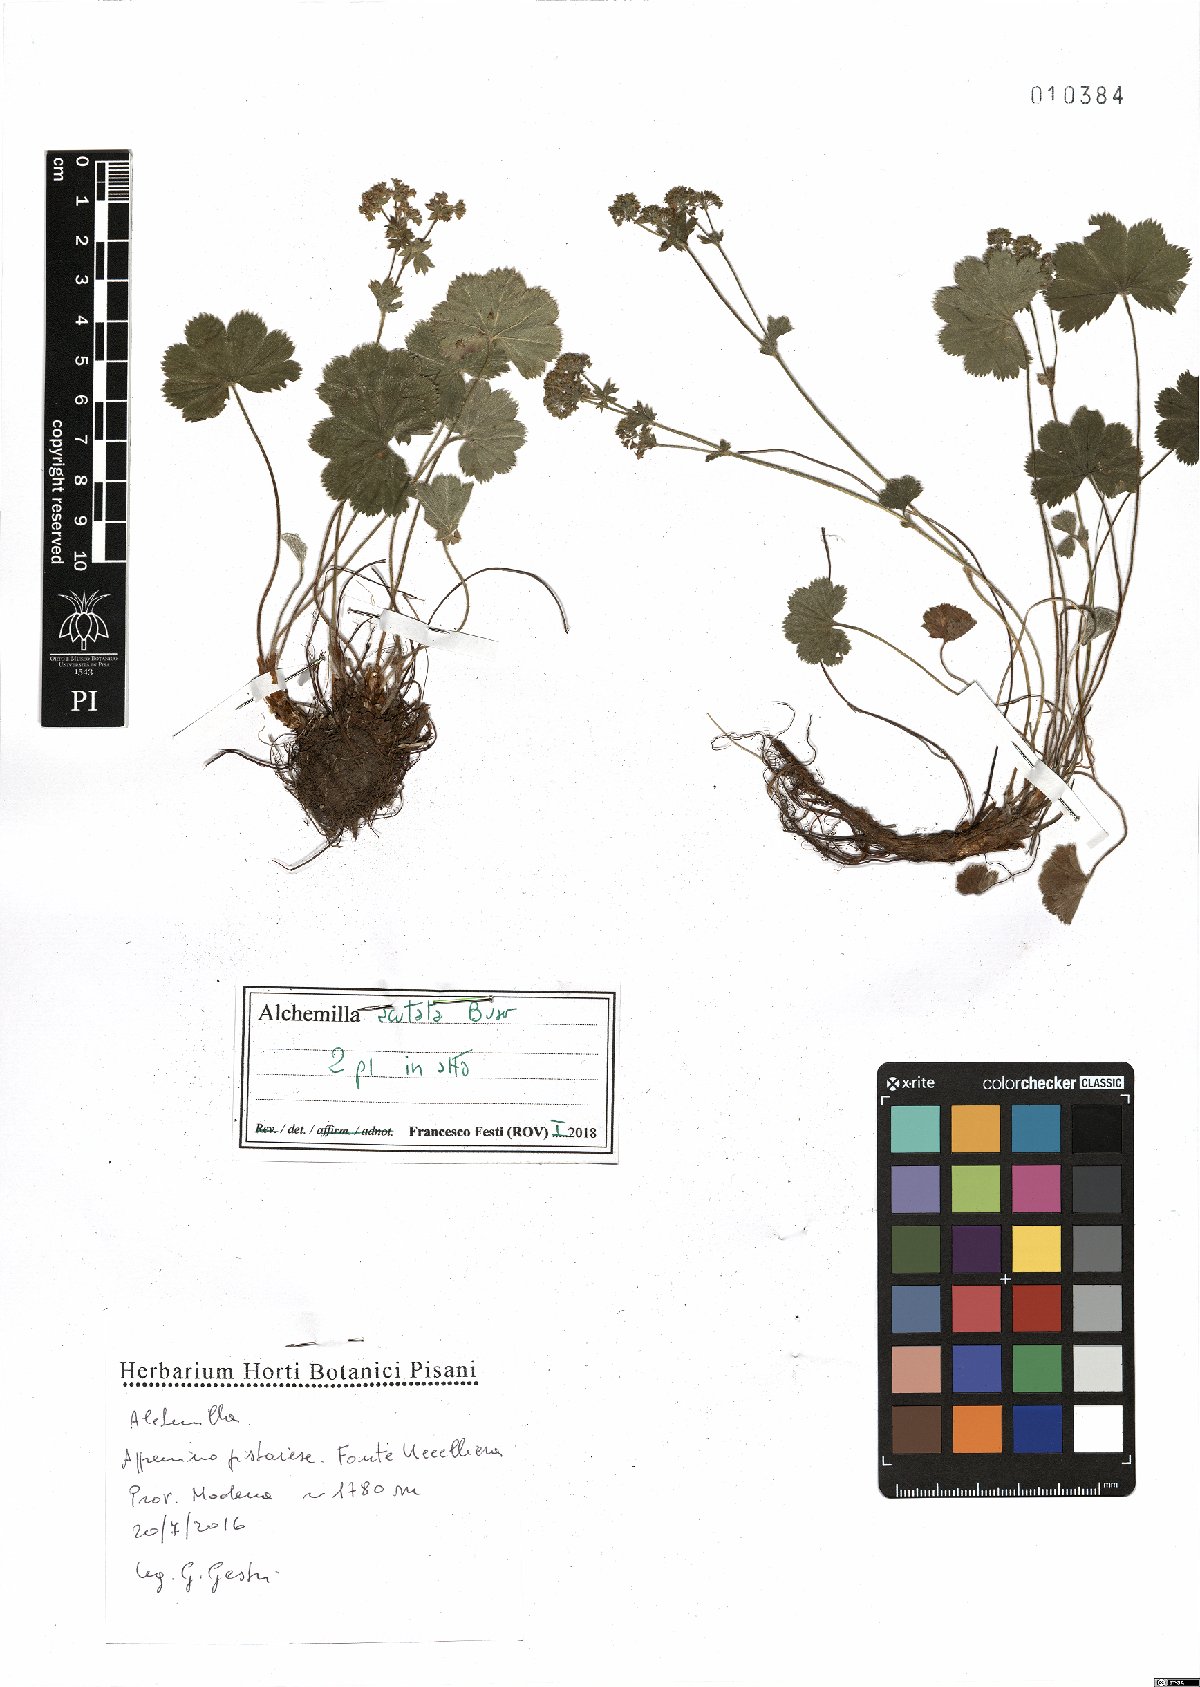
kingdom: Plantae
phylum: Tracheophyta
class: Magnoliopsida
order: Rosales
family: Rosaceae
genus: Alchemilla
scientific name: Alchemilla acutata
